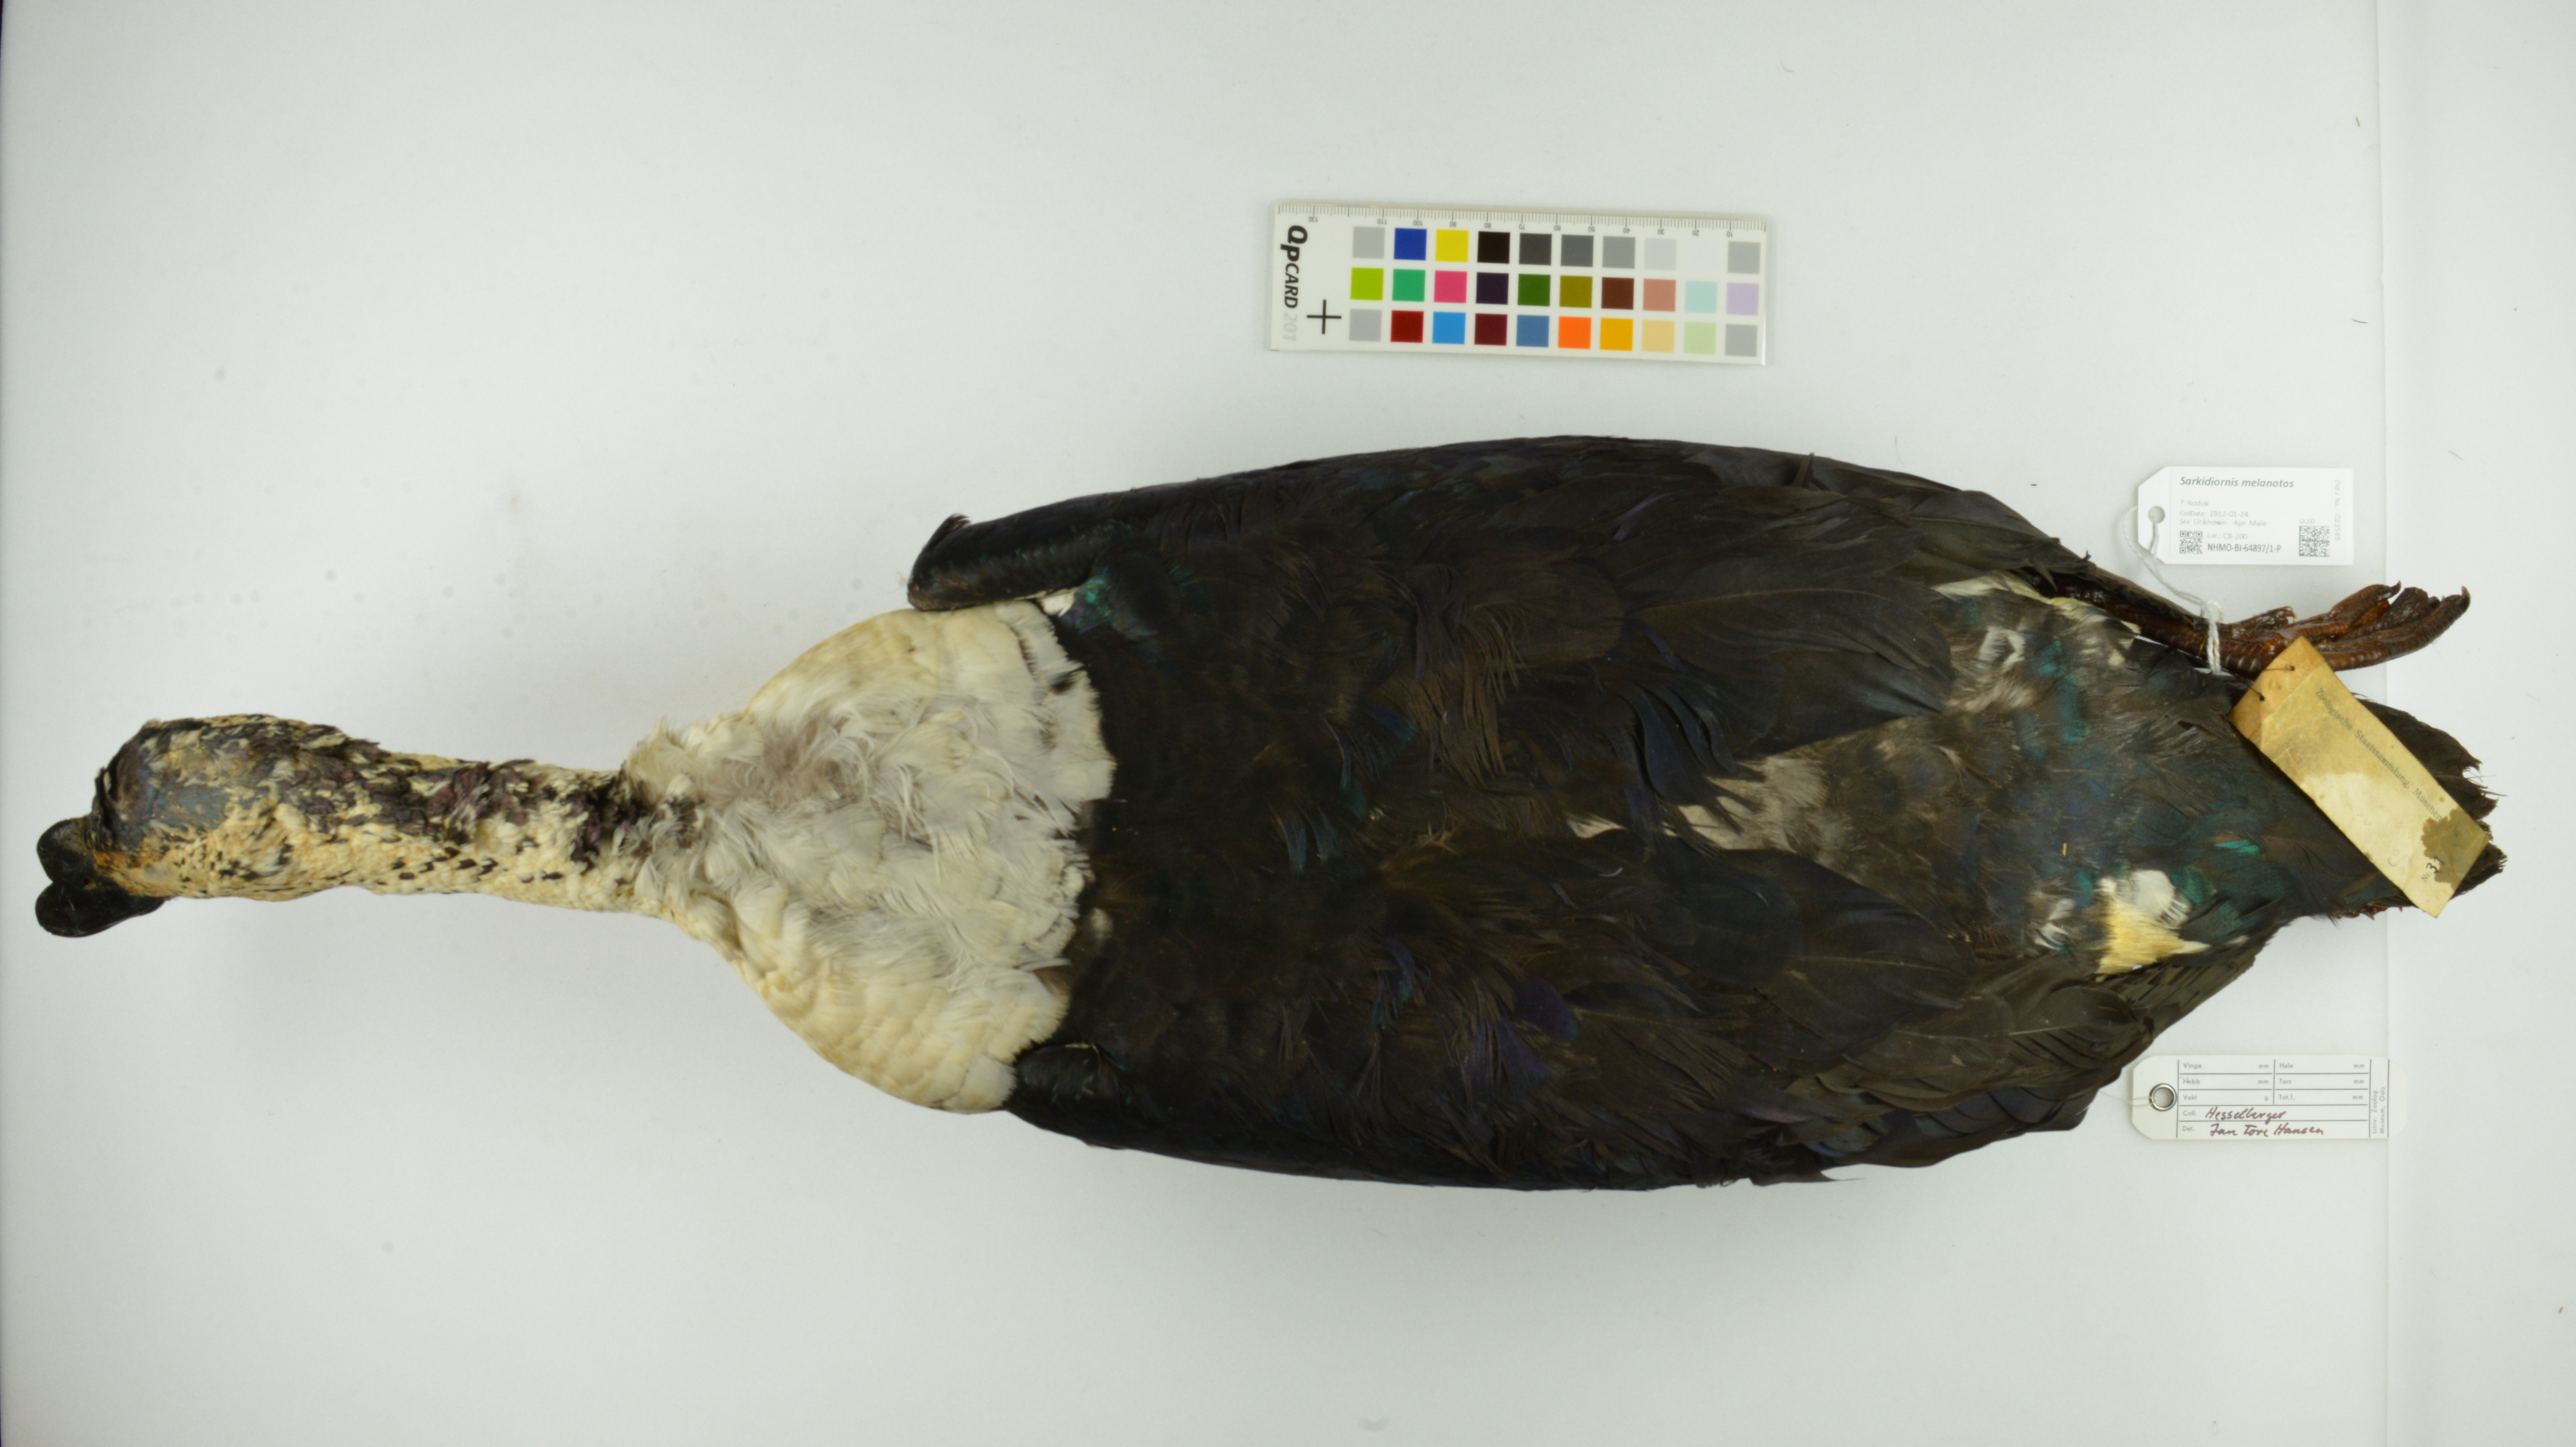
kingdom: Animalia
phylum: Chordata
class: Aves
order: Anseriformes
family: Anatidae
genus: Sarkidiornis
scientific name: Sarkidiornis melanotos
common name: Comb duck
